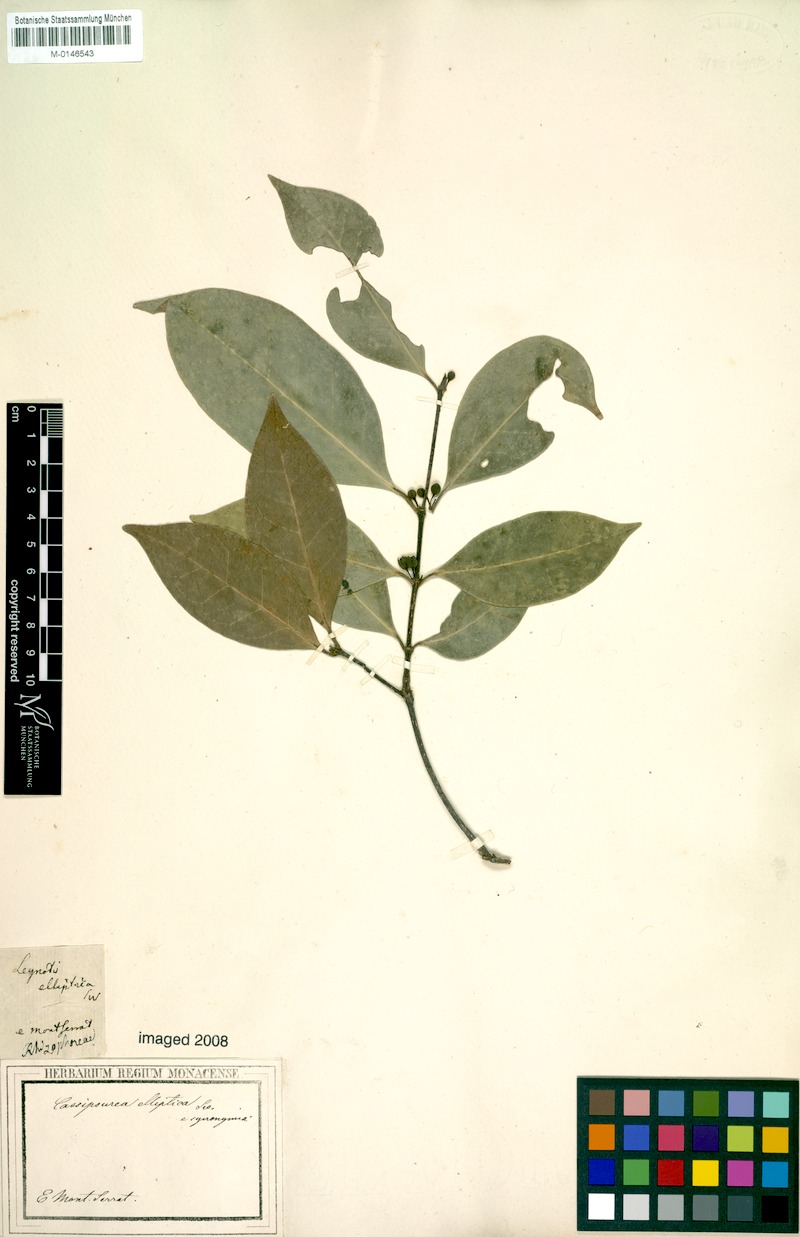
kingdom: Plantae
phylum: Tracheophyta
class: Magnoliopsida
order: Malpighiales
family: Rhizophoraceae
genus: Cassipourea
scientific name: Cassipourea elliptica
